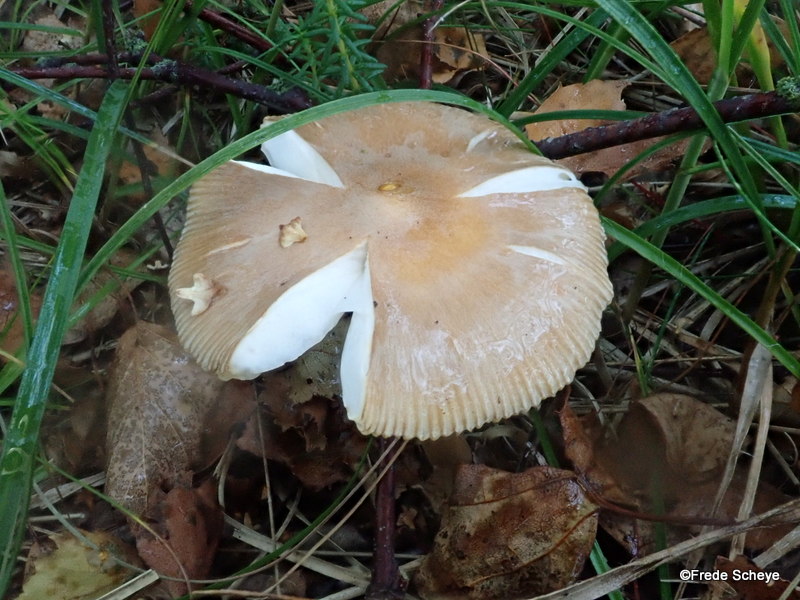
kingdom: Fungi
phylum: Basidiomycota
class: Agaricomycetes
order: Agaricales
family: Amanitaceae
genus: Amanita
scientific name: Amanita fulva
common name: brun kam-fluesvamp
